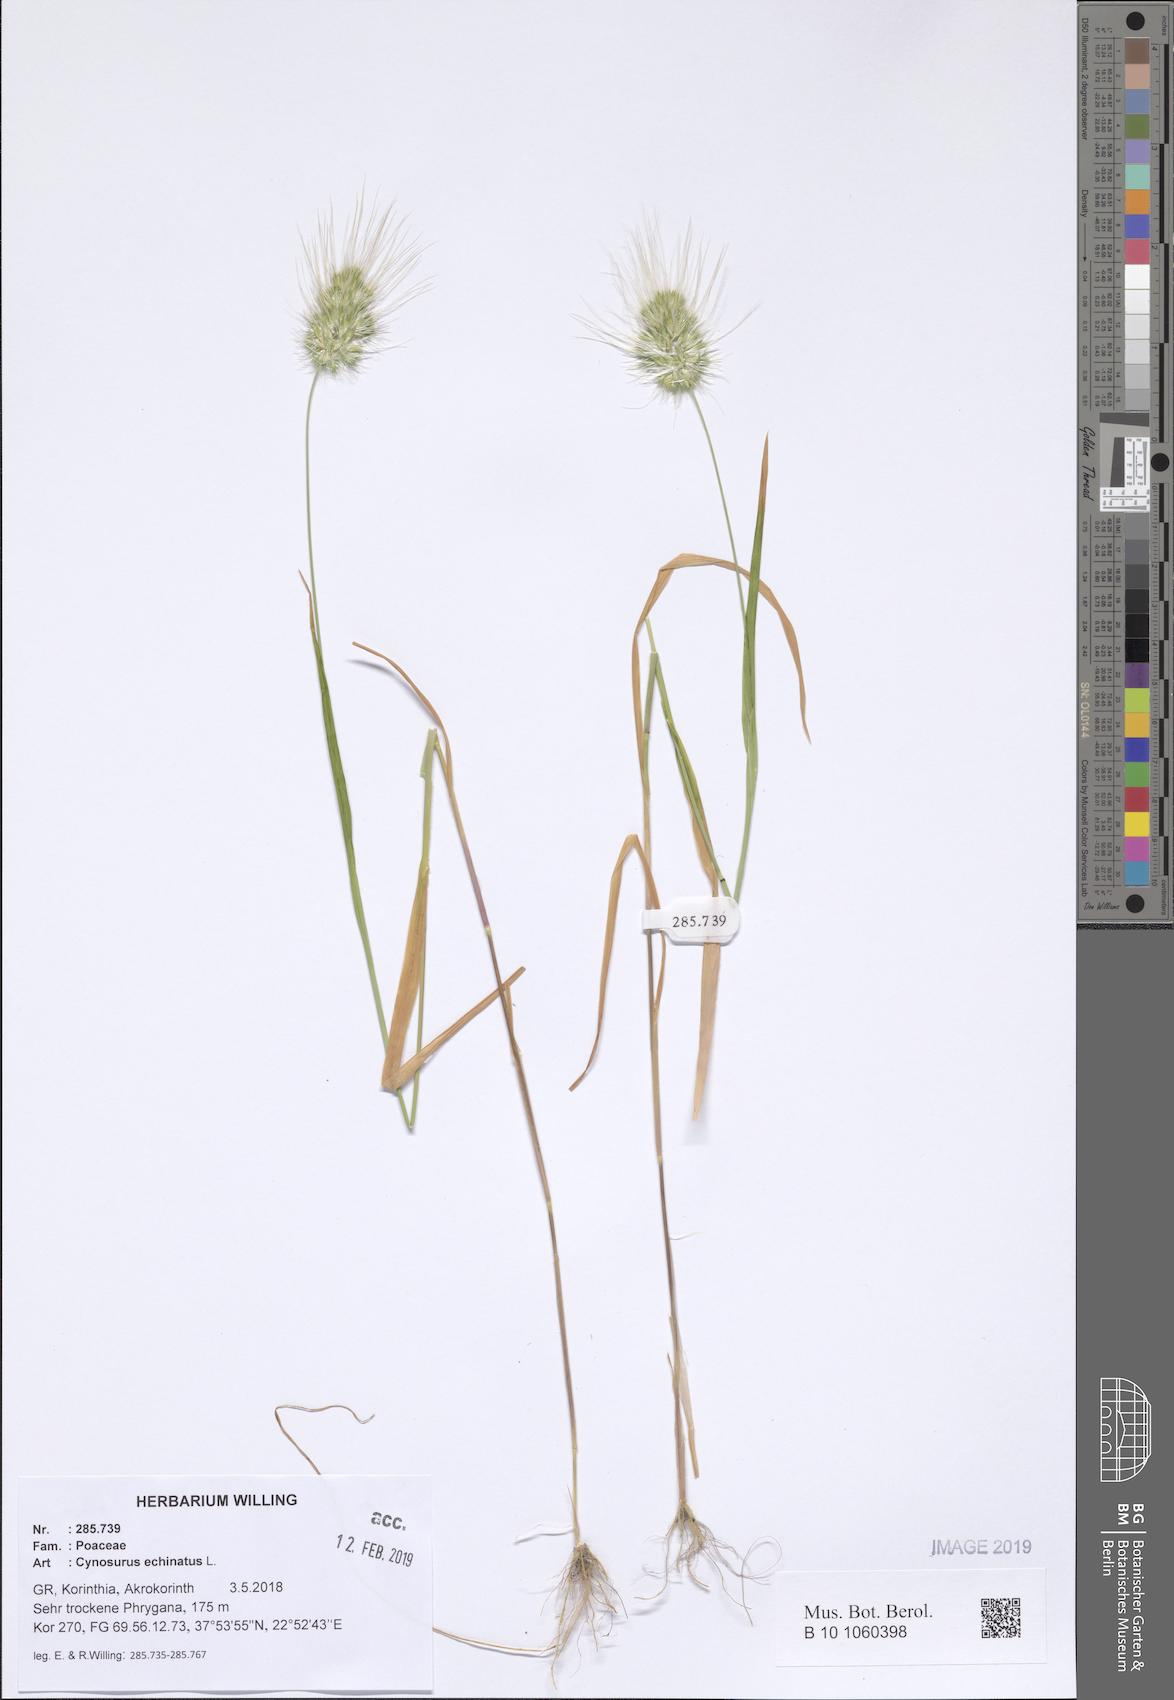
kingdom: Plantae
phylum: Tracheophyta
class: Liliopsida
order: Poales
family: Poaceae
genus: Cynosurus
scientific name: Cynosurus echinatus
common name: Rough dog's-tail
